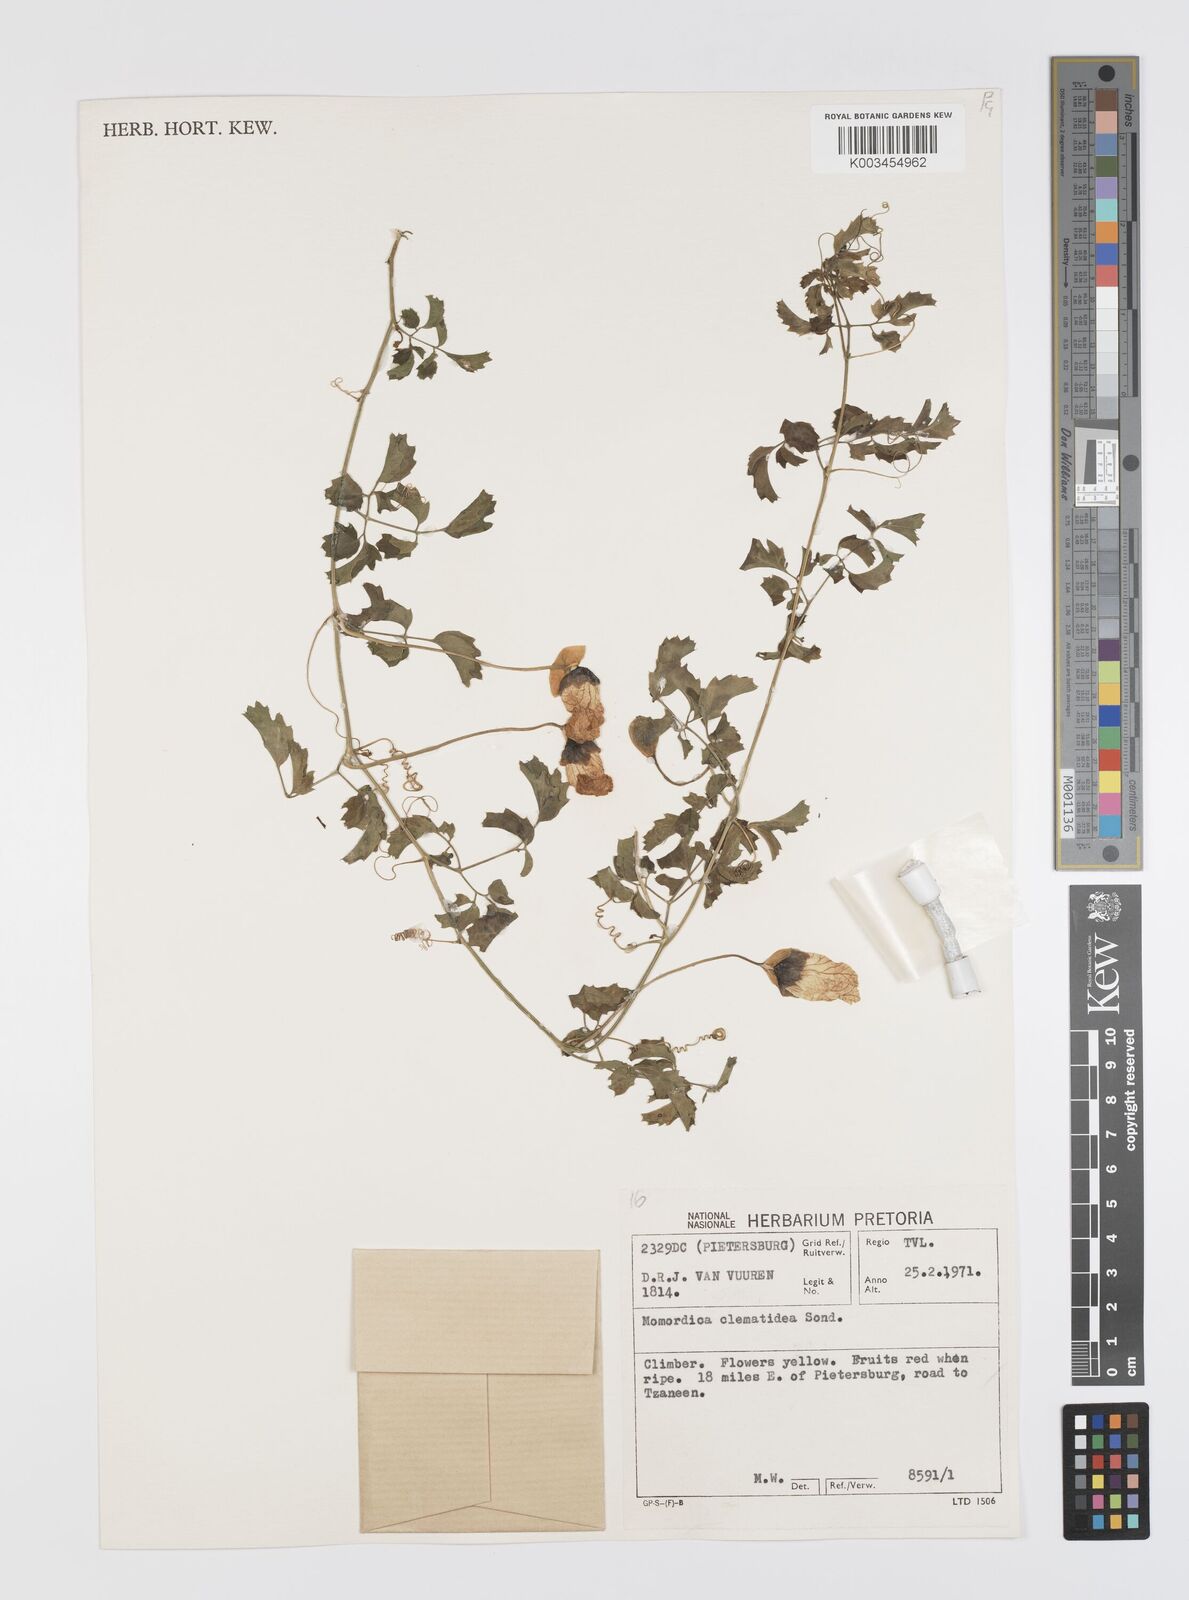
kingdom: Plantae
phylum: Tracheophyta
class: Magnoliopsida
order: Cucurbitales
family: Cucurbitaceae
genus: Momordica
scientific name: Momordica cardiospermoides
